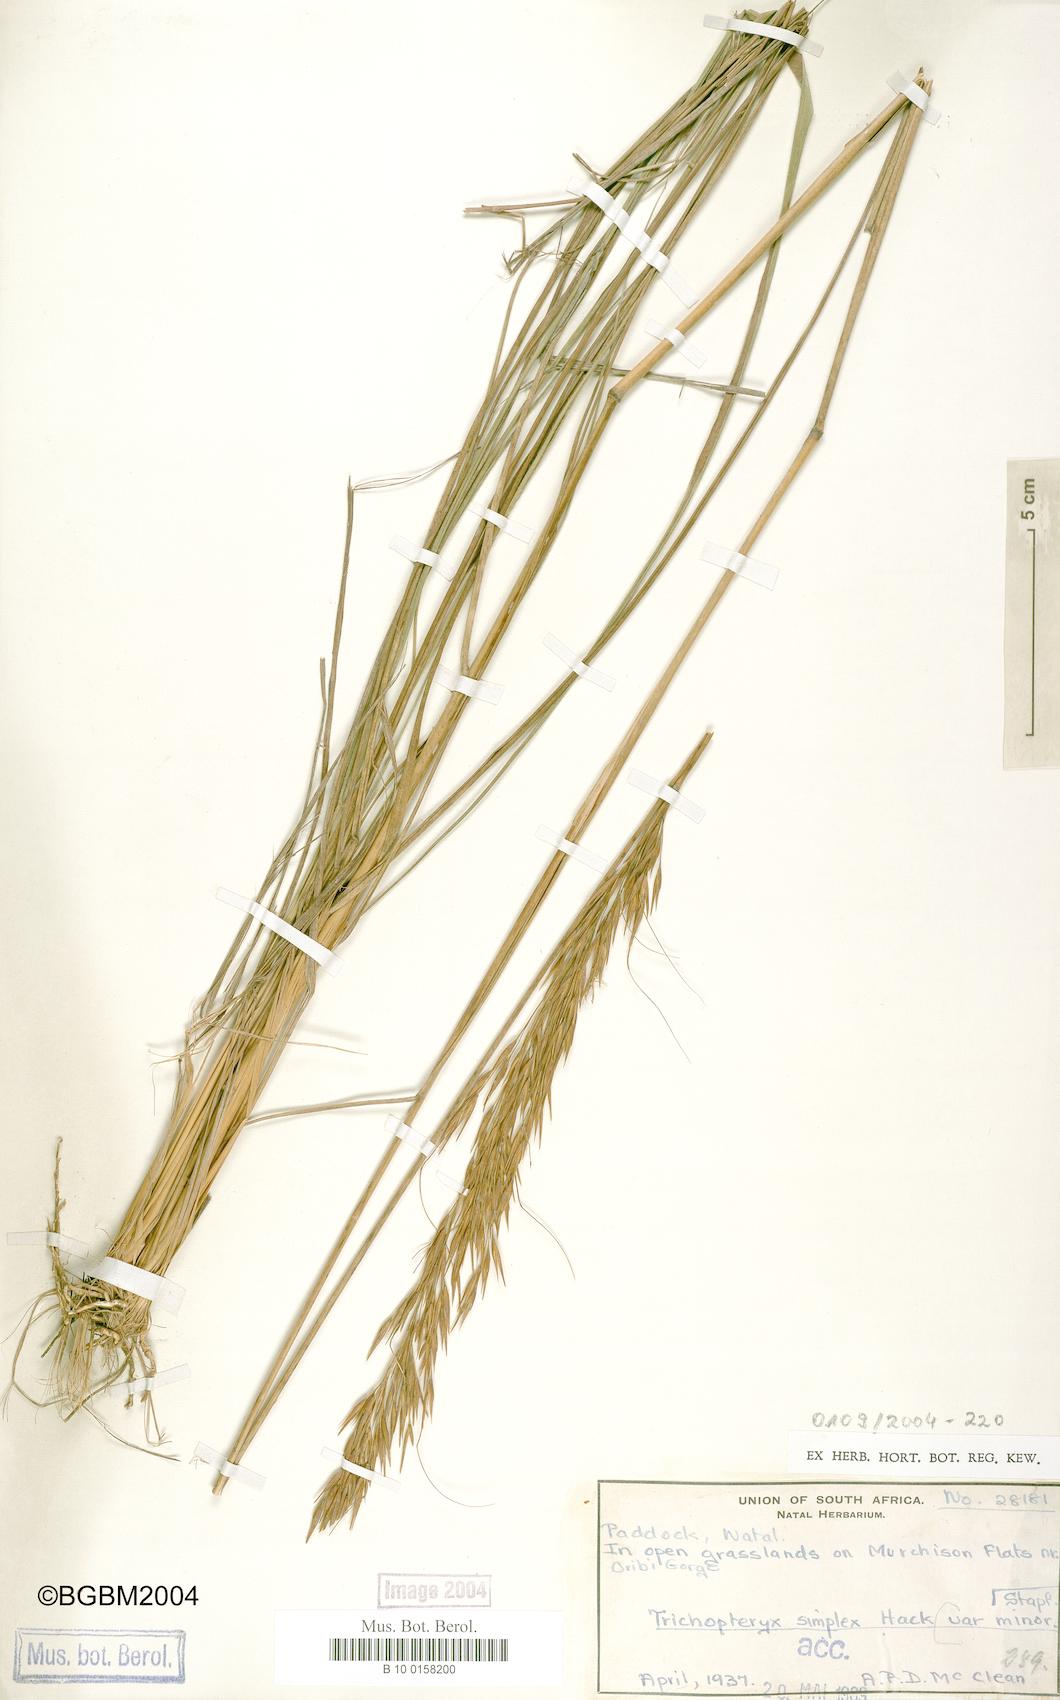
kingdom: Plantae
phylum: Tracheophyta
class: Liliopsida
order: Poales
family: Poaceae
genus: Loudetia
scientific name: Loudetia simplex
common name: Common russet grass
